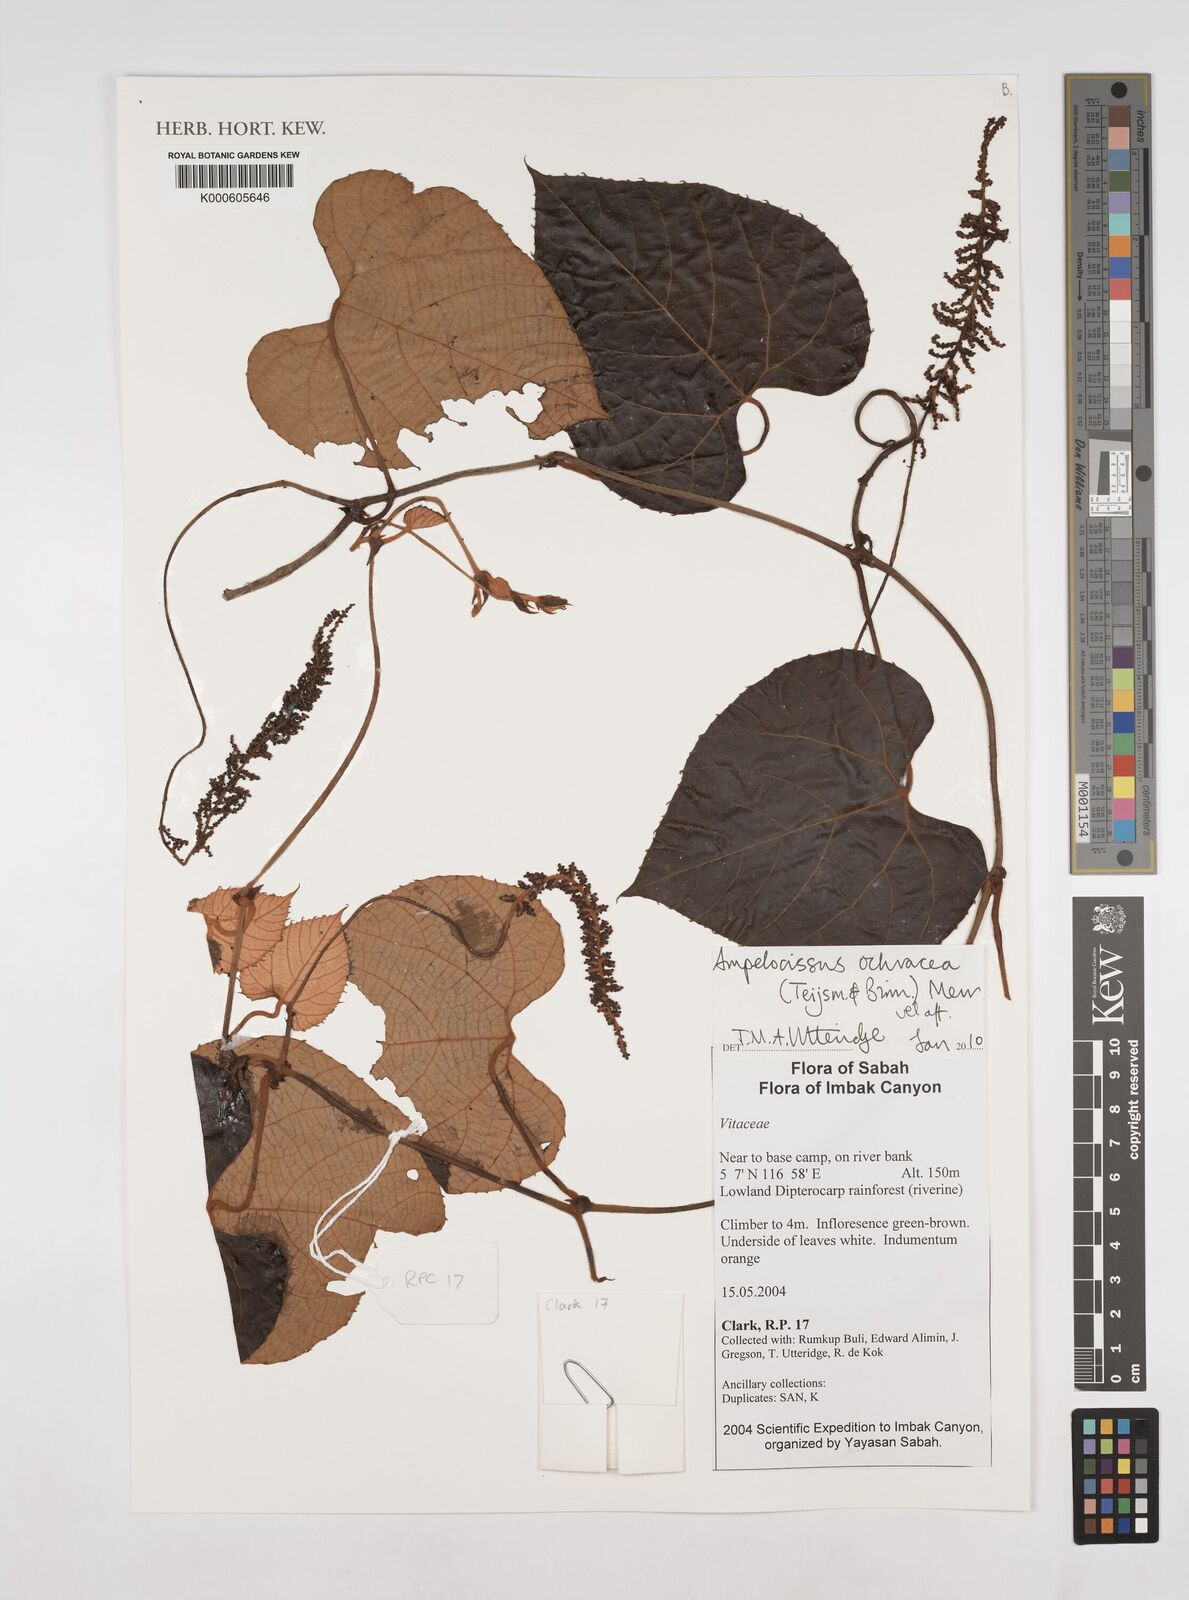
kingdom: Plantae
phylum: Tracheophyta
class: Magnoliopsida
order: Vitales
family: Vitaceae
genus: Ampelocissus
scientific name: Ampelocissus ochracea
